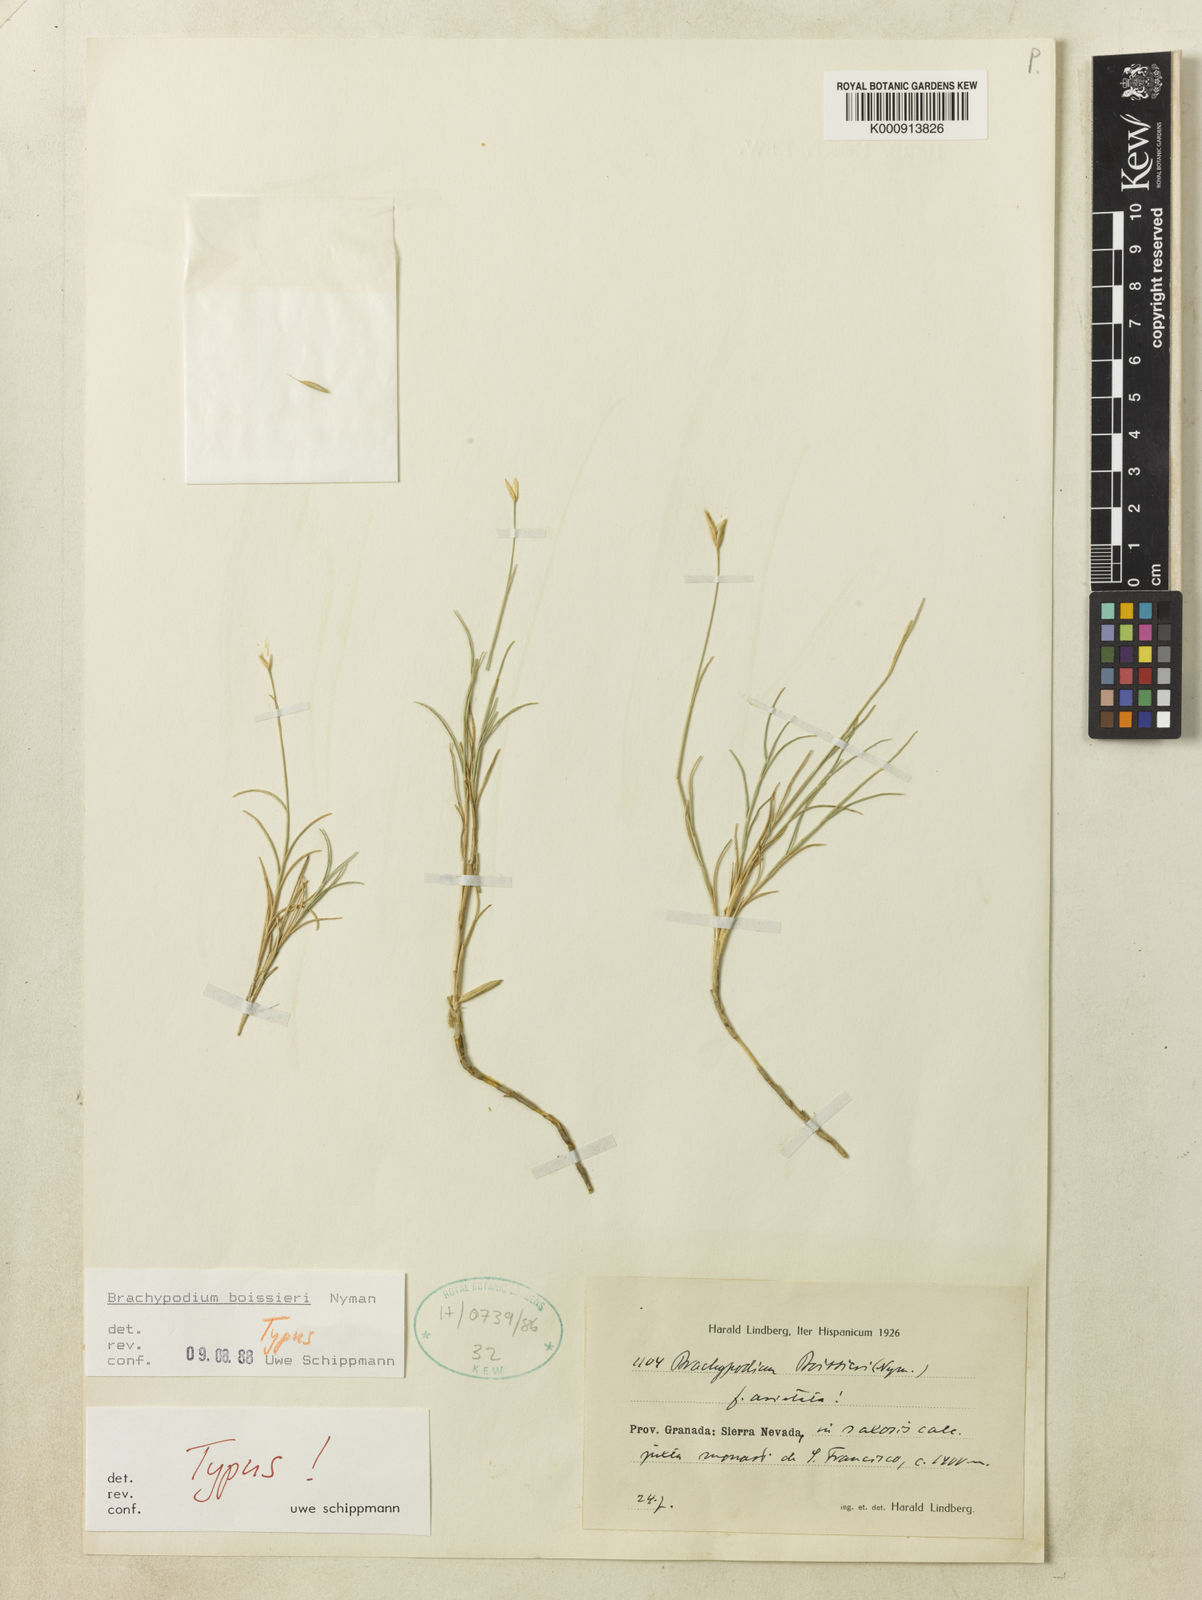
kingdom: Plantae
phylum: Tracheophyta
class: Liliopsida
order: Poales
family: Poaceae
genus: Brachypodium
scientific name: Brachypodium retusum
